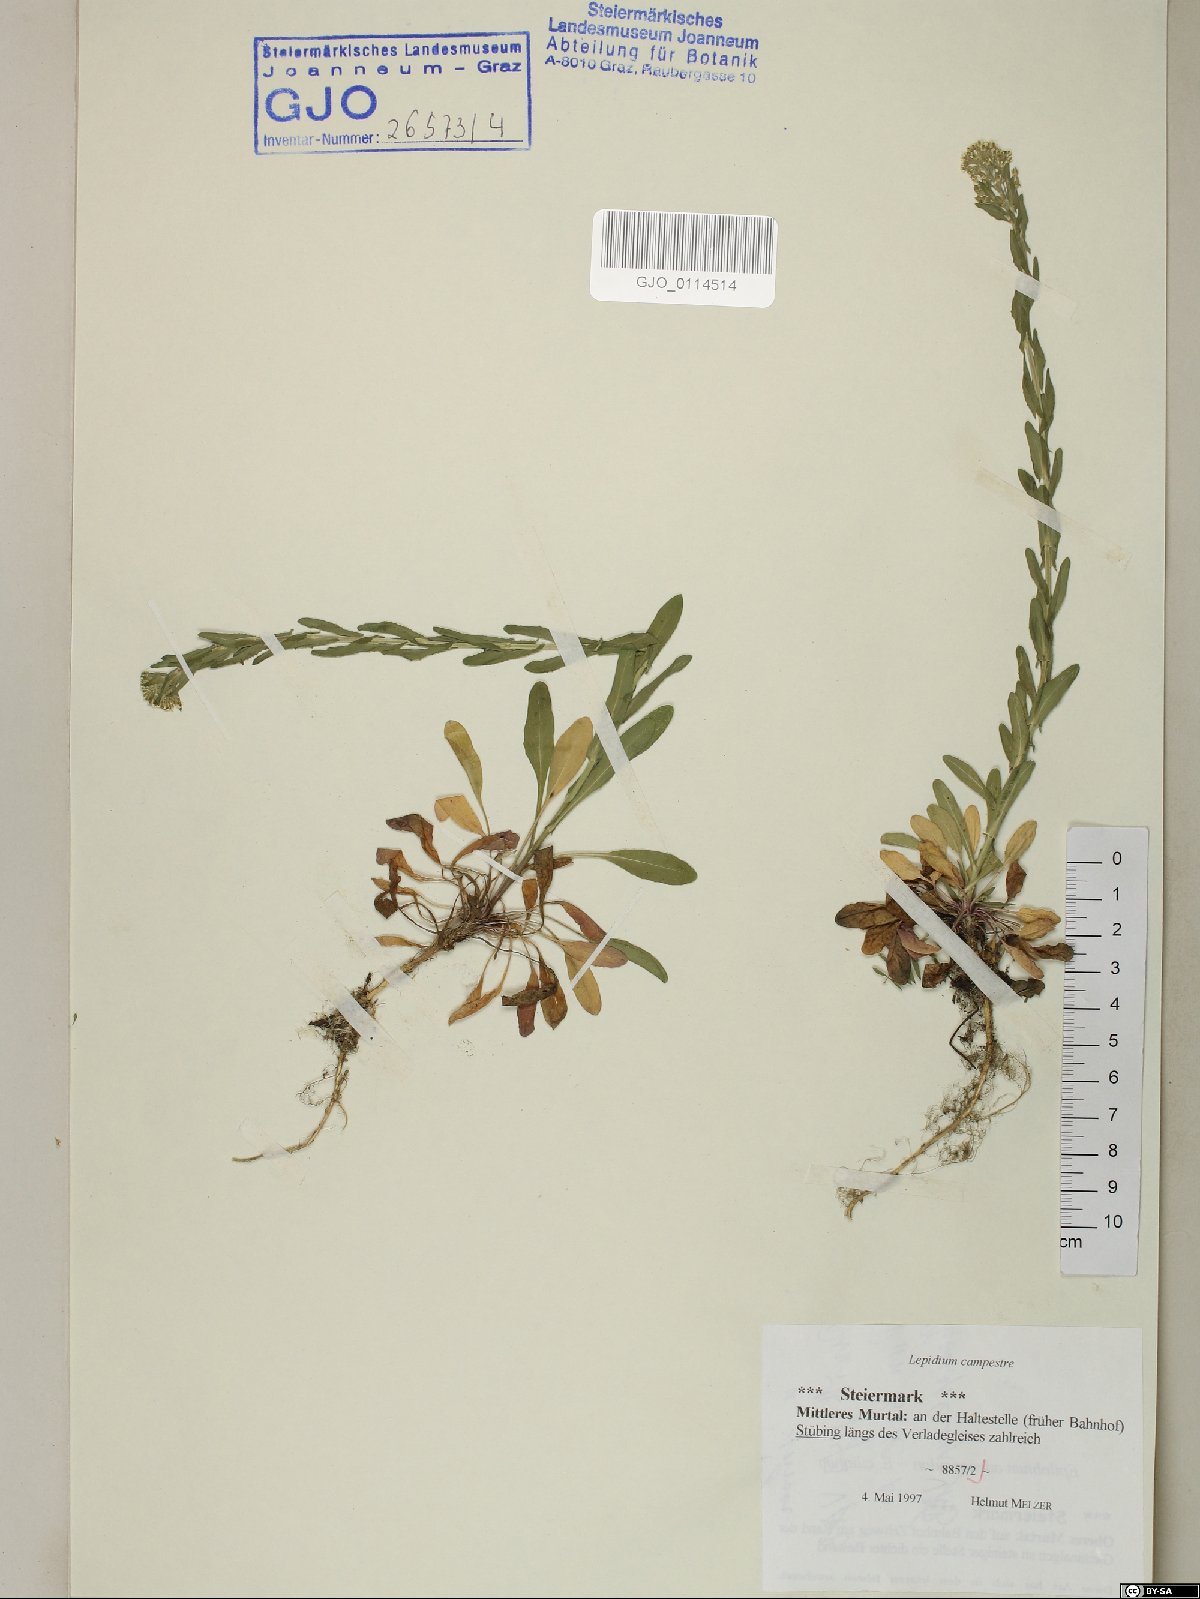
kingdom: Plantae
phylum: Tracheophyta
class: Magnoliopsida
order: Brassicales
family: Brassicaceae
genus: Lepidium
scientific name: Lepidium campestre
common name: Field pepperwort
